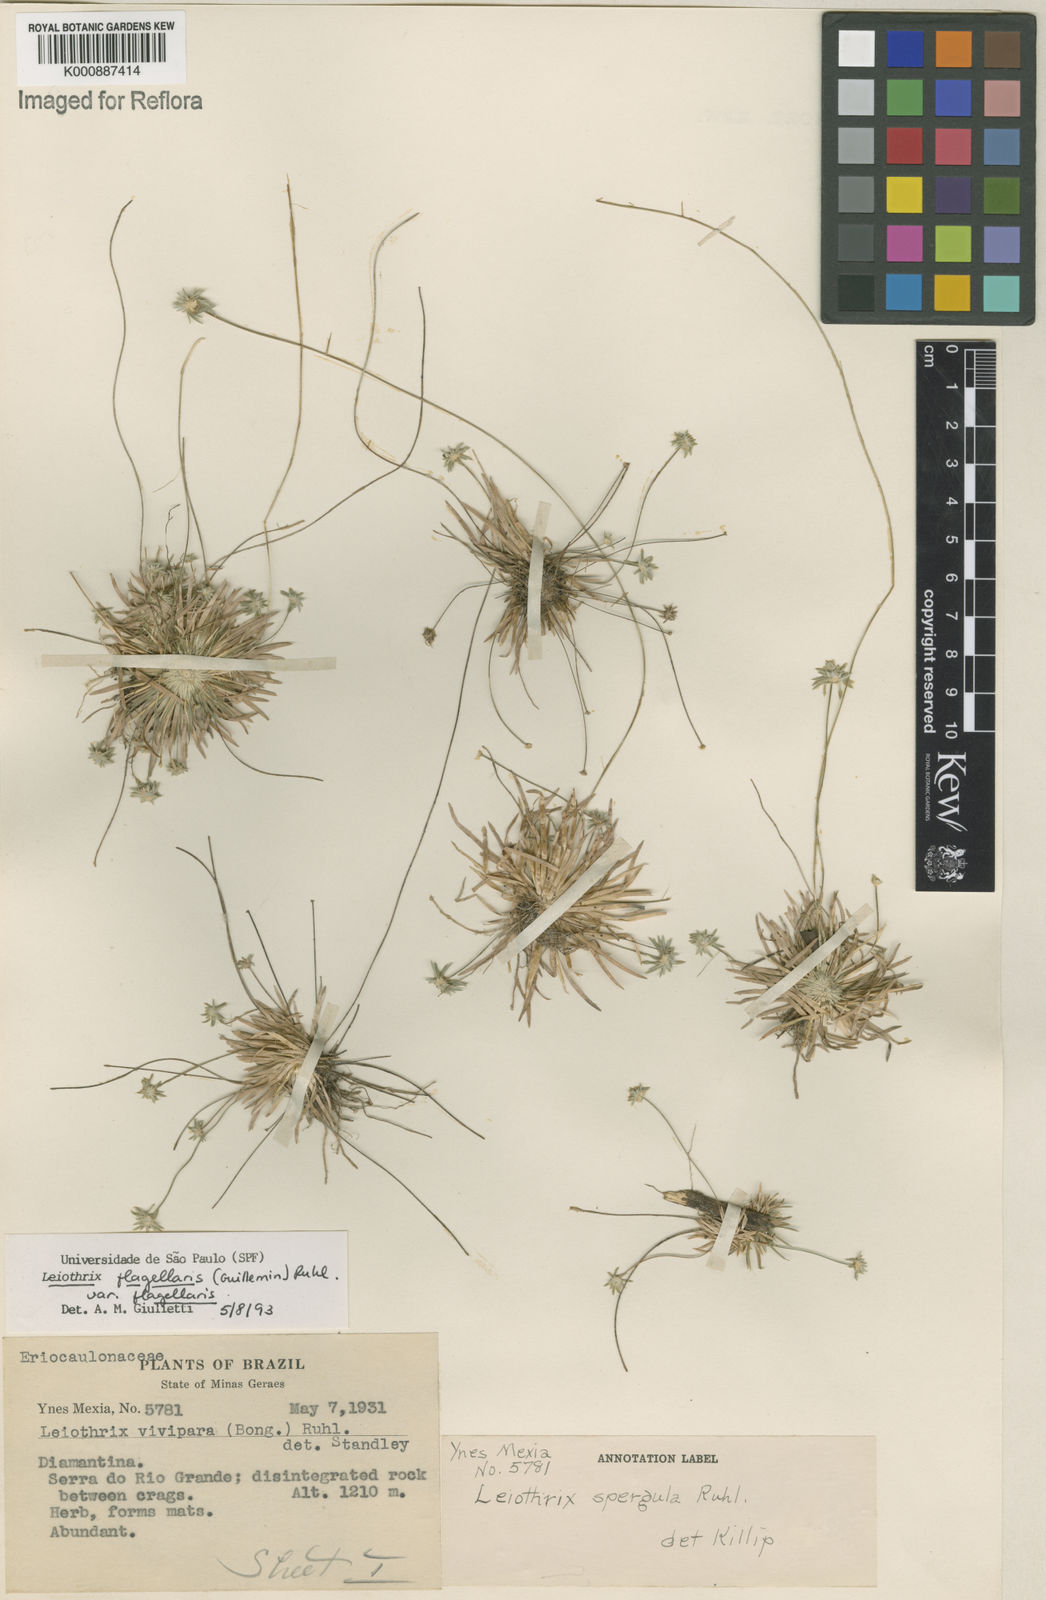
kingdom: Plantae
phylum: Tracheophyta
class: Liliopsida
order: Poales
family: Eriocaulaceae
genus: Leiothrix
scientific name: Leiothrix flagellaris
